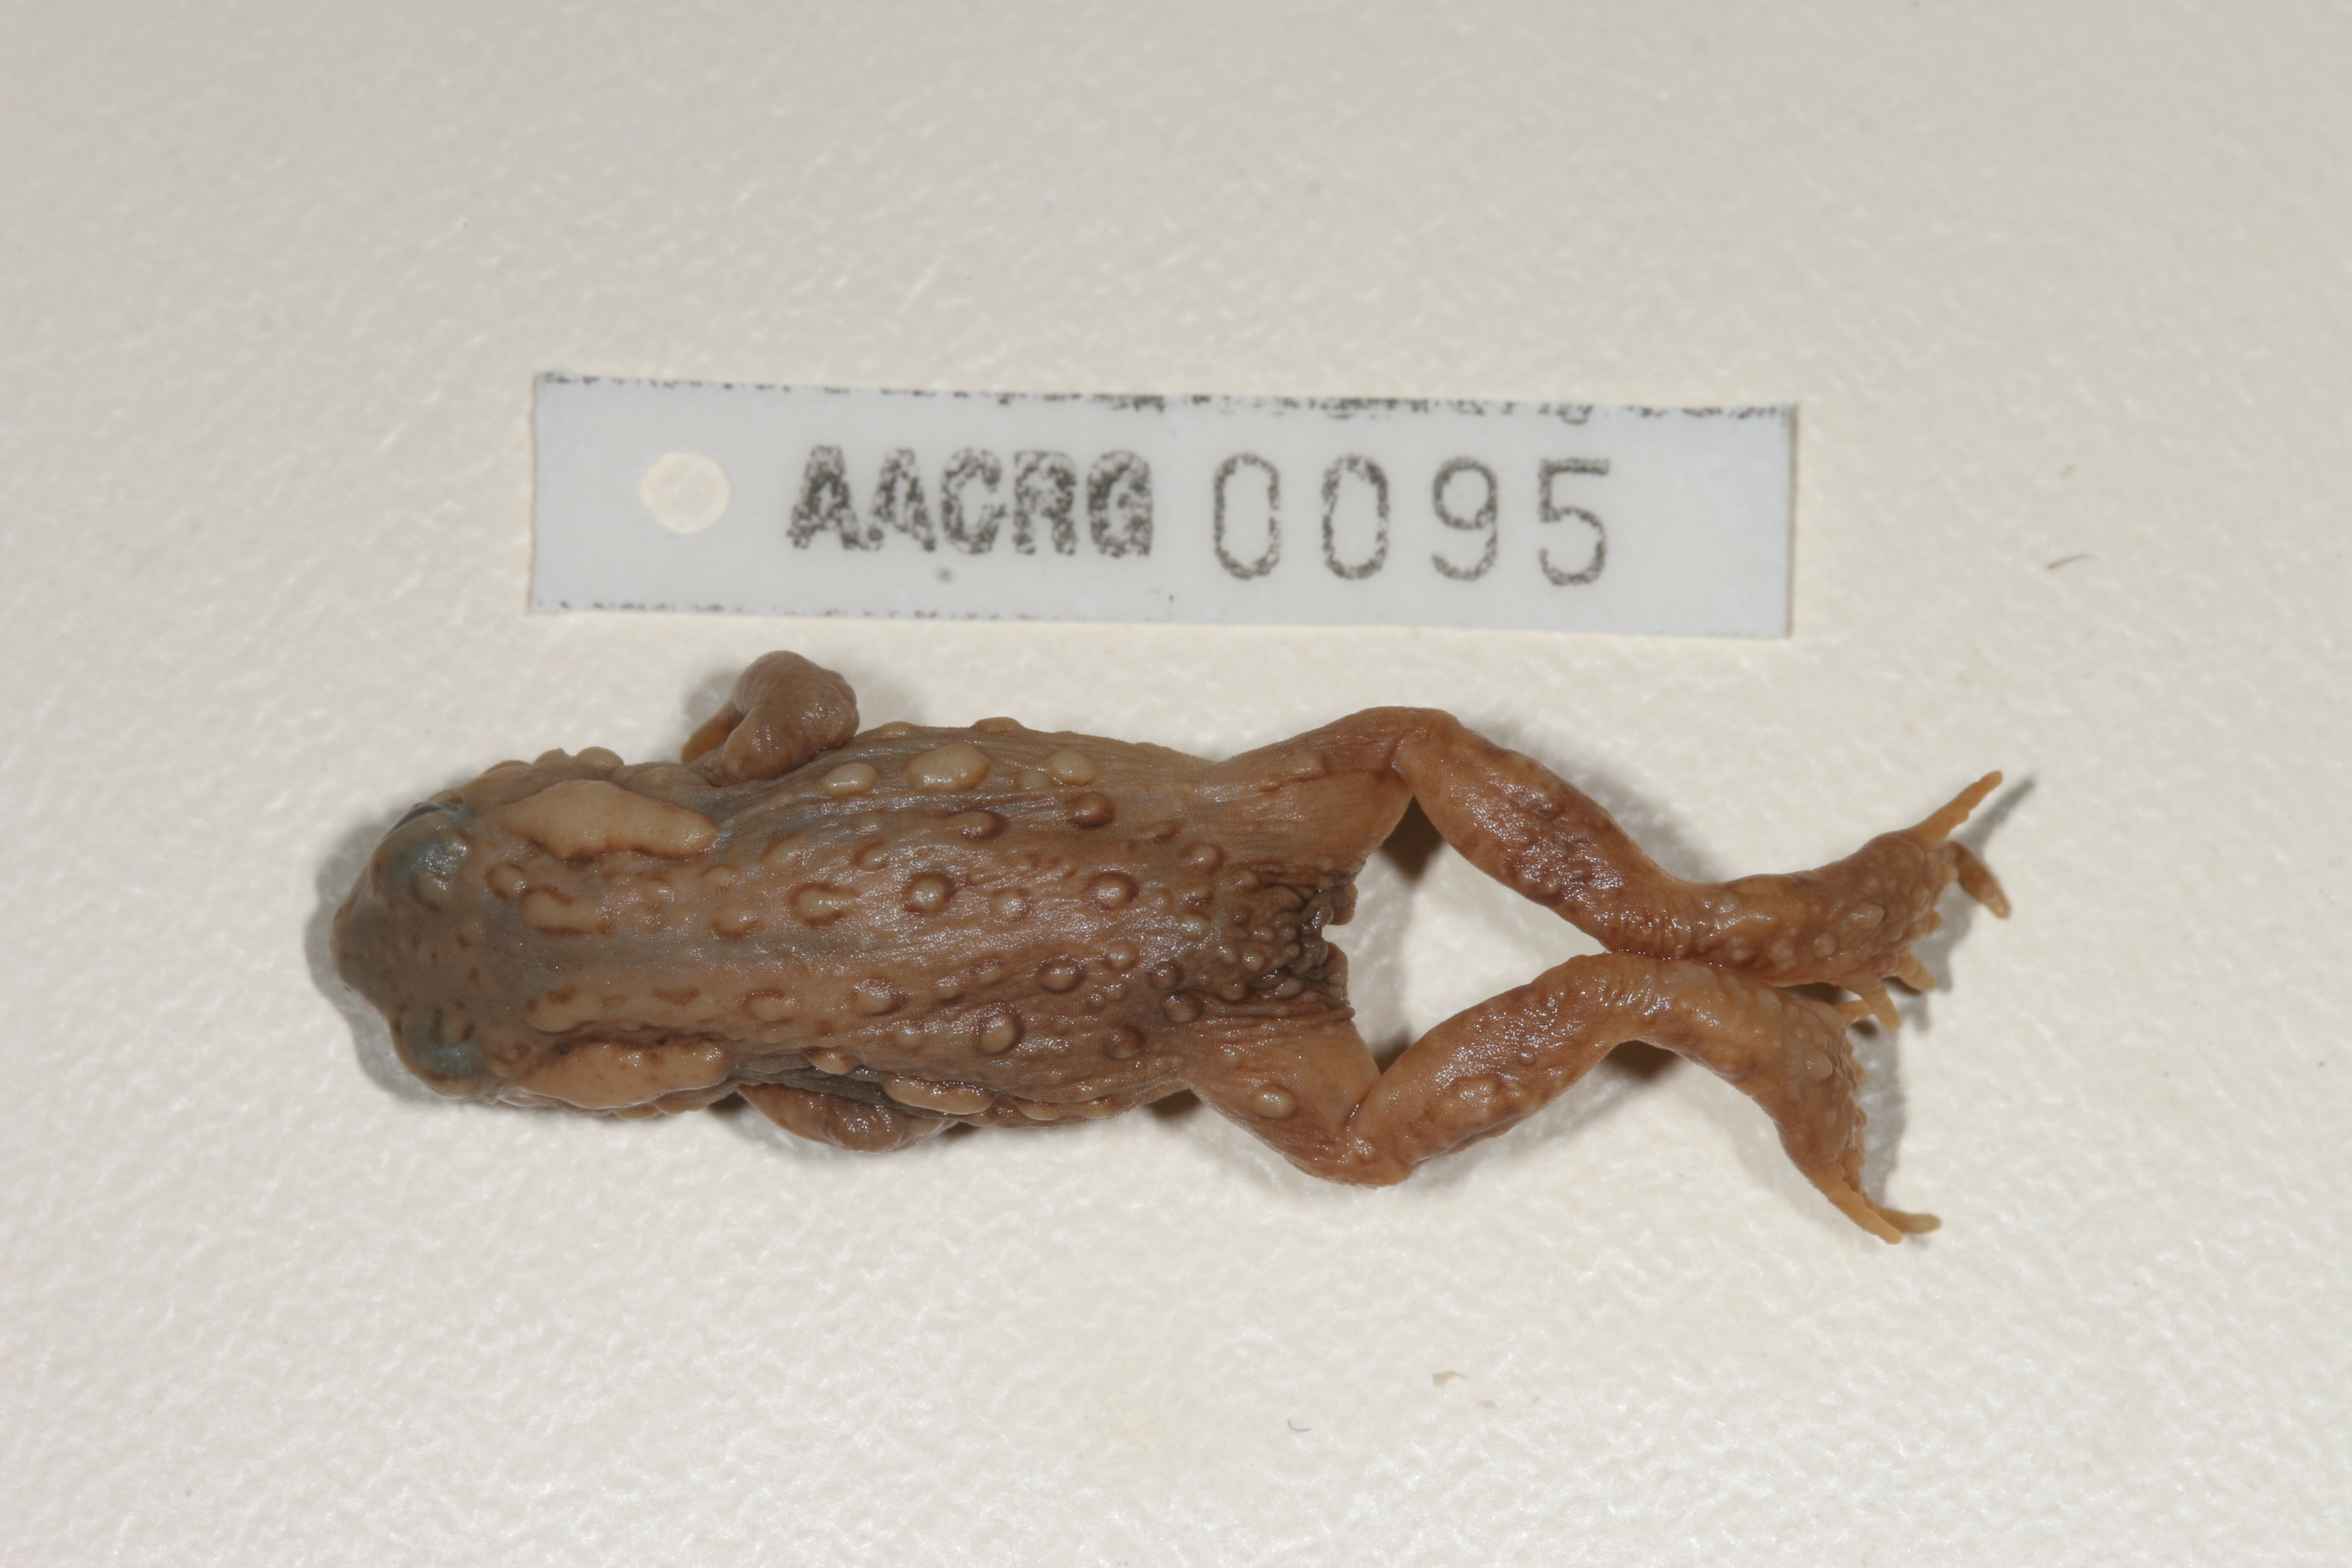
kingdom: Animalia
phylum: Chordata
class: Amphibia
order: Anura
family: Bufonidae
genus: Capensibufo
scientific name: Capensibufo rosei
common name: Cape mountain toad
